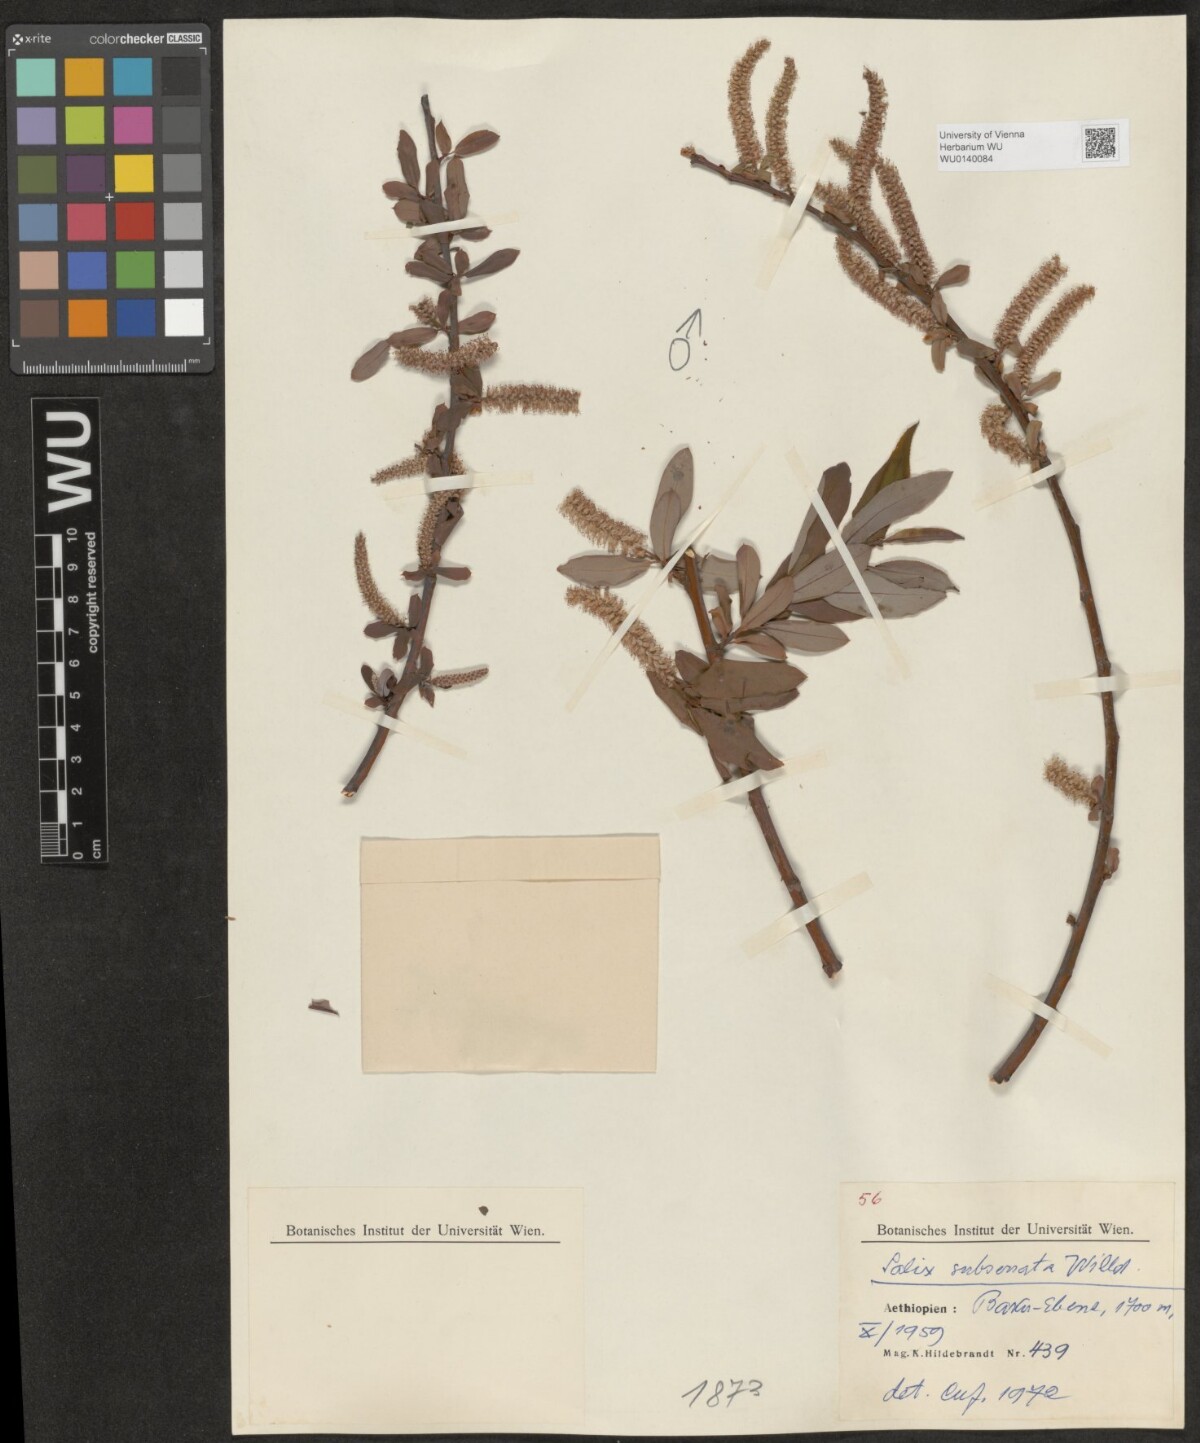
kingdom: Plantae
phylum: Tracheophyta
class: Magnoliopsida
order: Malpighiales
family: Salicaceae
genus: Salix
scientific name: Salix mucronata
